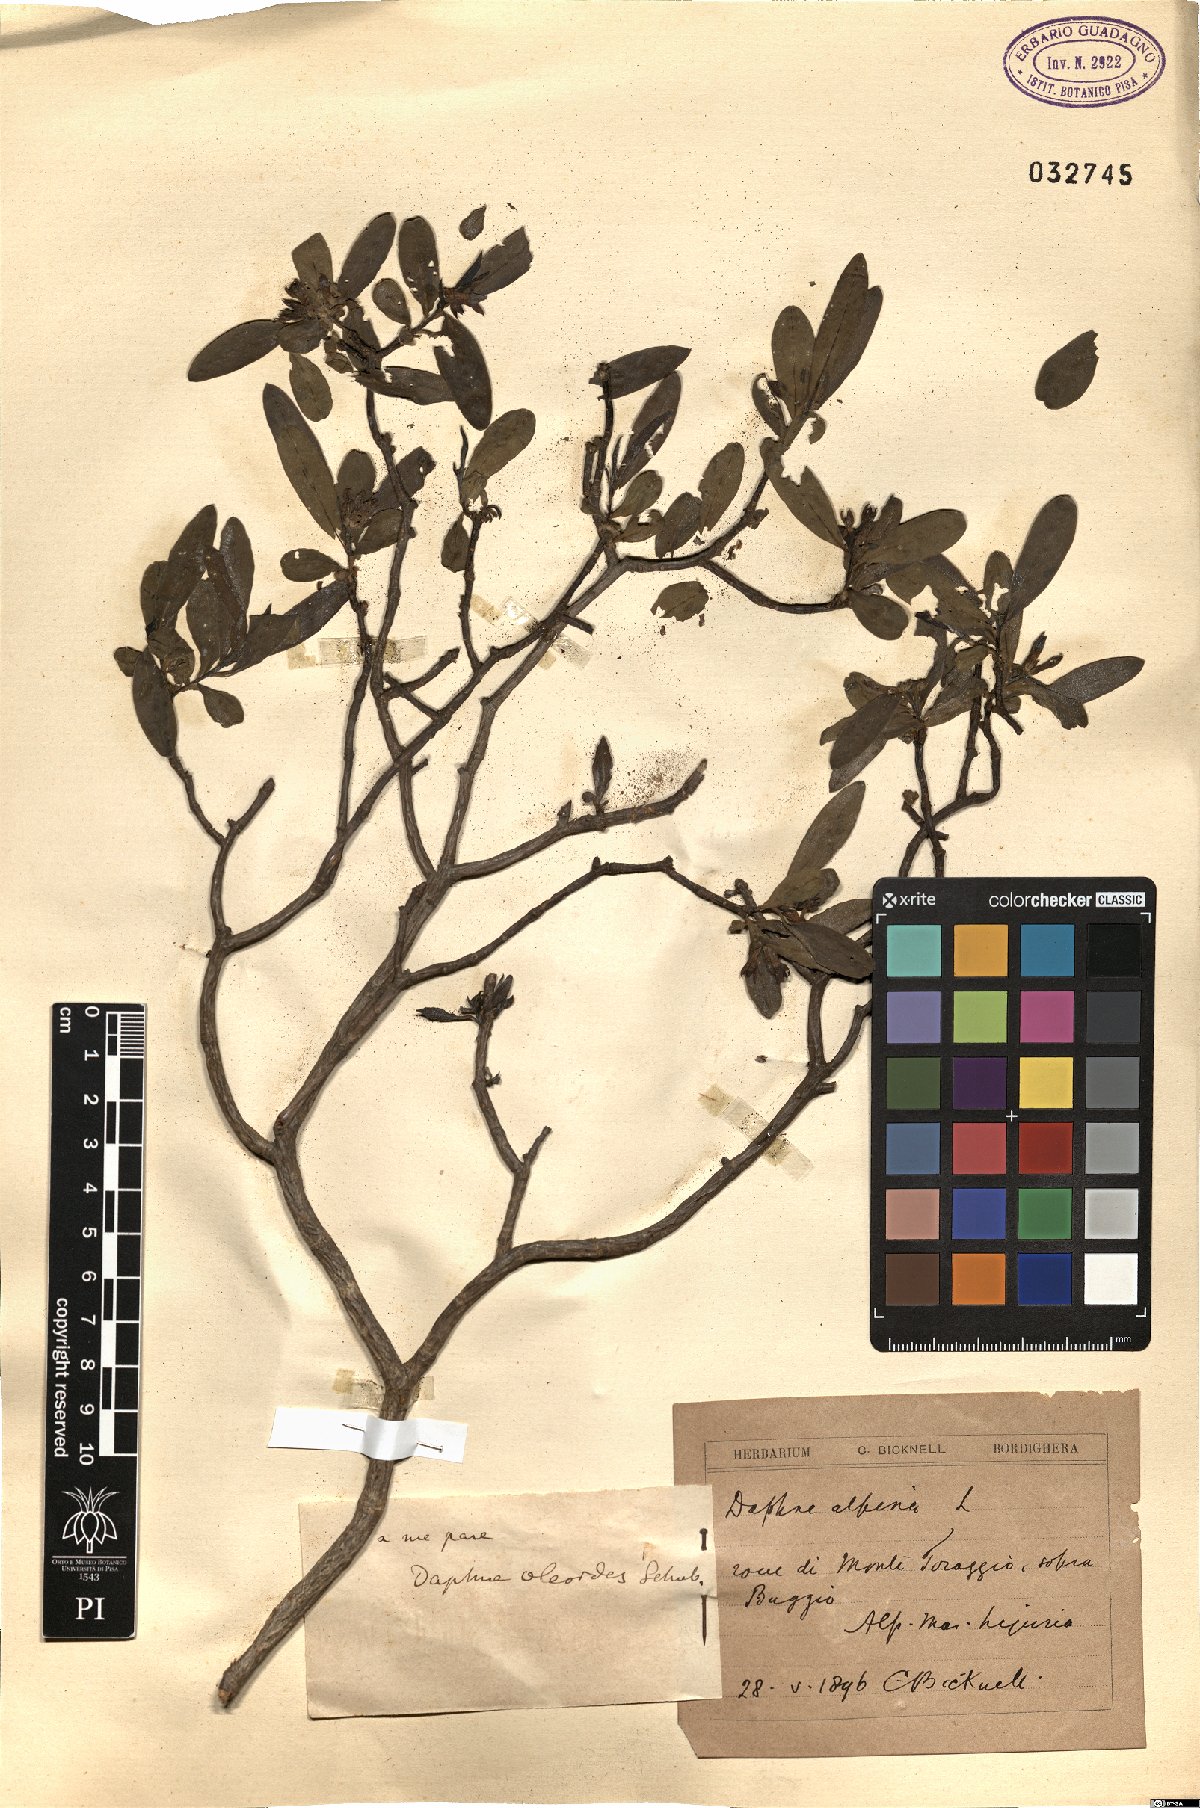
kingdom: Plantae
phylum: Tracheophyta
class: Magnoliopsida
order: Malvales
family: Thymelaeaceae
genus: Daphne
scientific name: Daphne oleoides
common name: Spurge-olive
